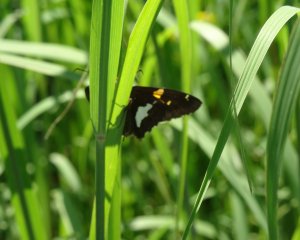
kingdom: Animalia
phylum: Arthropoda
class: Insecta
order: Lepidoptera
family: Hesperiidae
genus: Epargyreus
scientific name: Epargyreus clarus
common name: Silver-spotted Skipper
